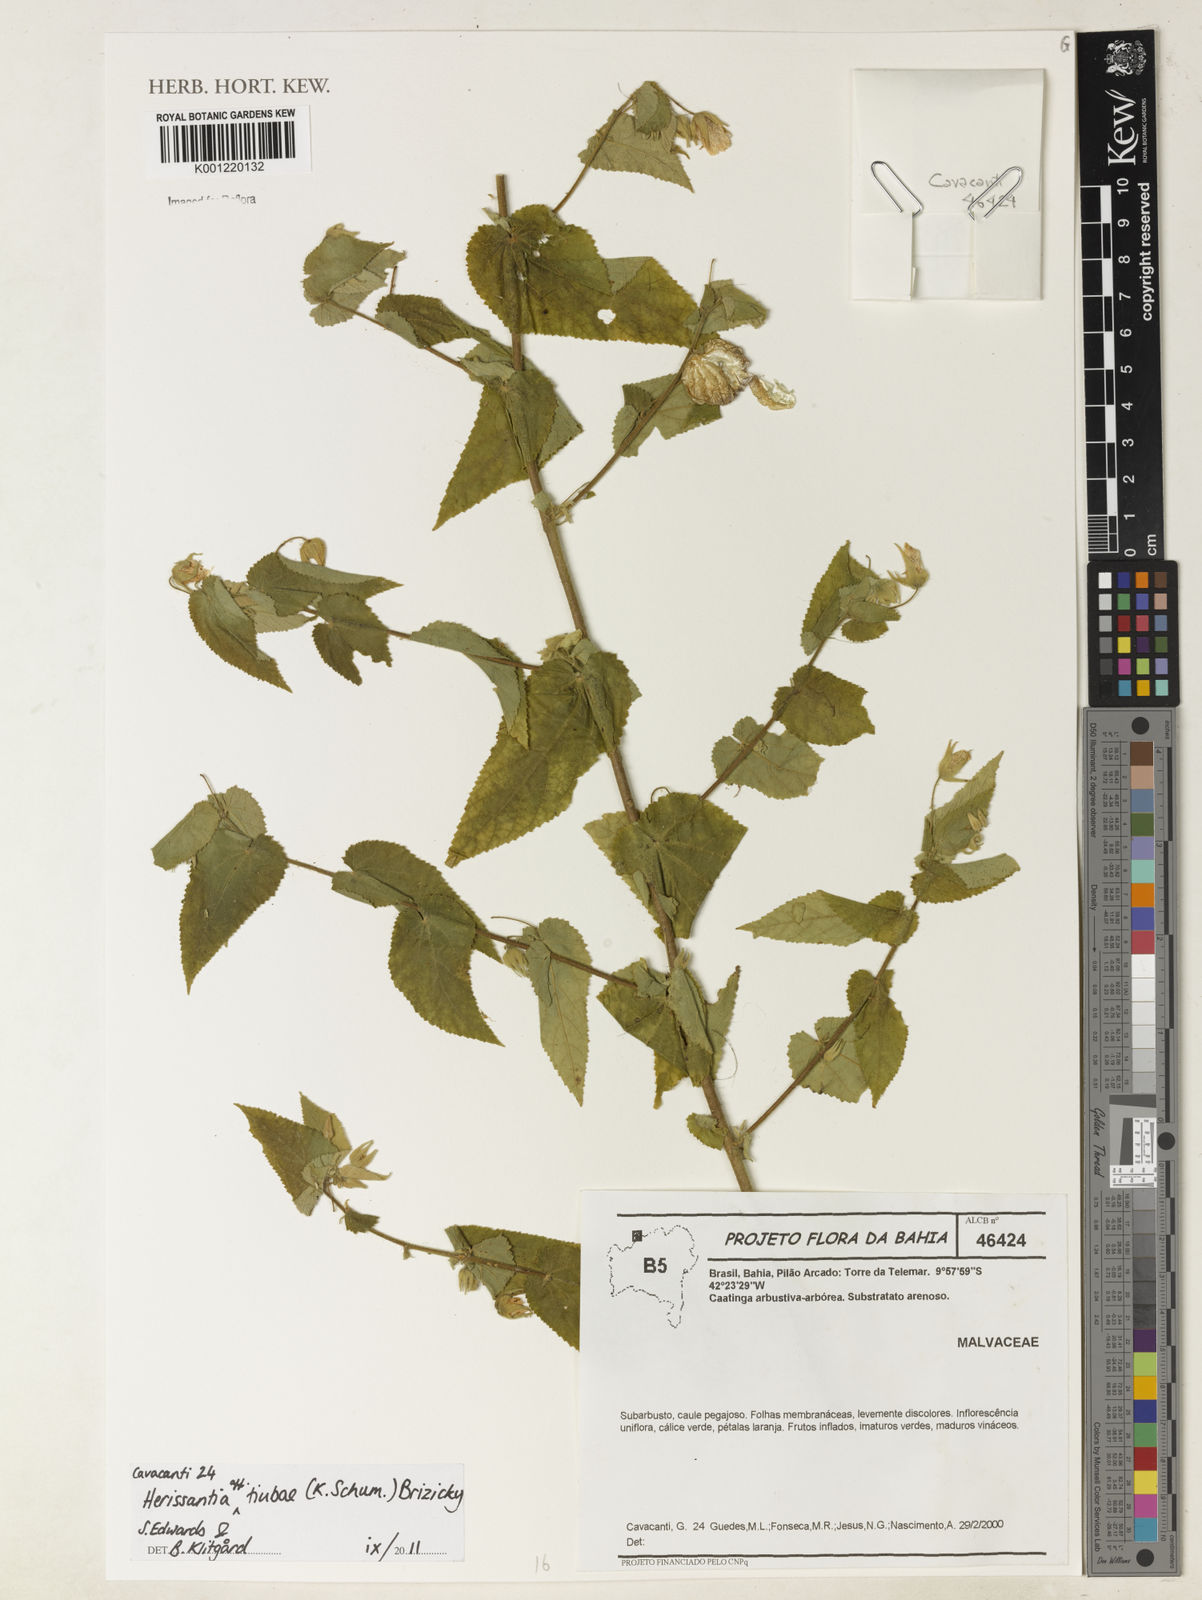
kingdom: Plantae
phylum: Tracheophyta
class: Magnoliopsida
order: Malvales
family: Malvaceae
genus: Herissantia
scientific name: Herissantia tiubae
